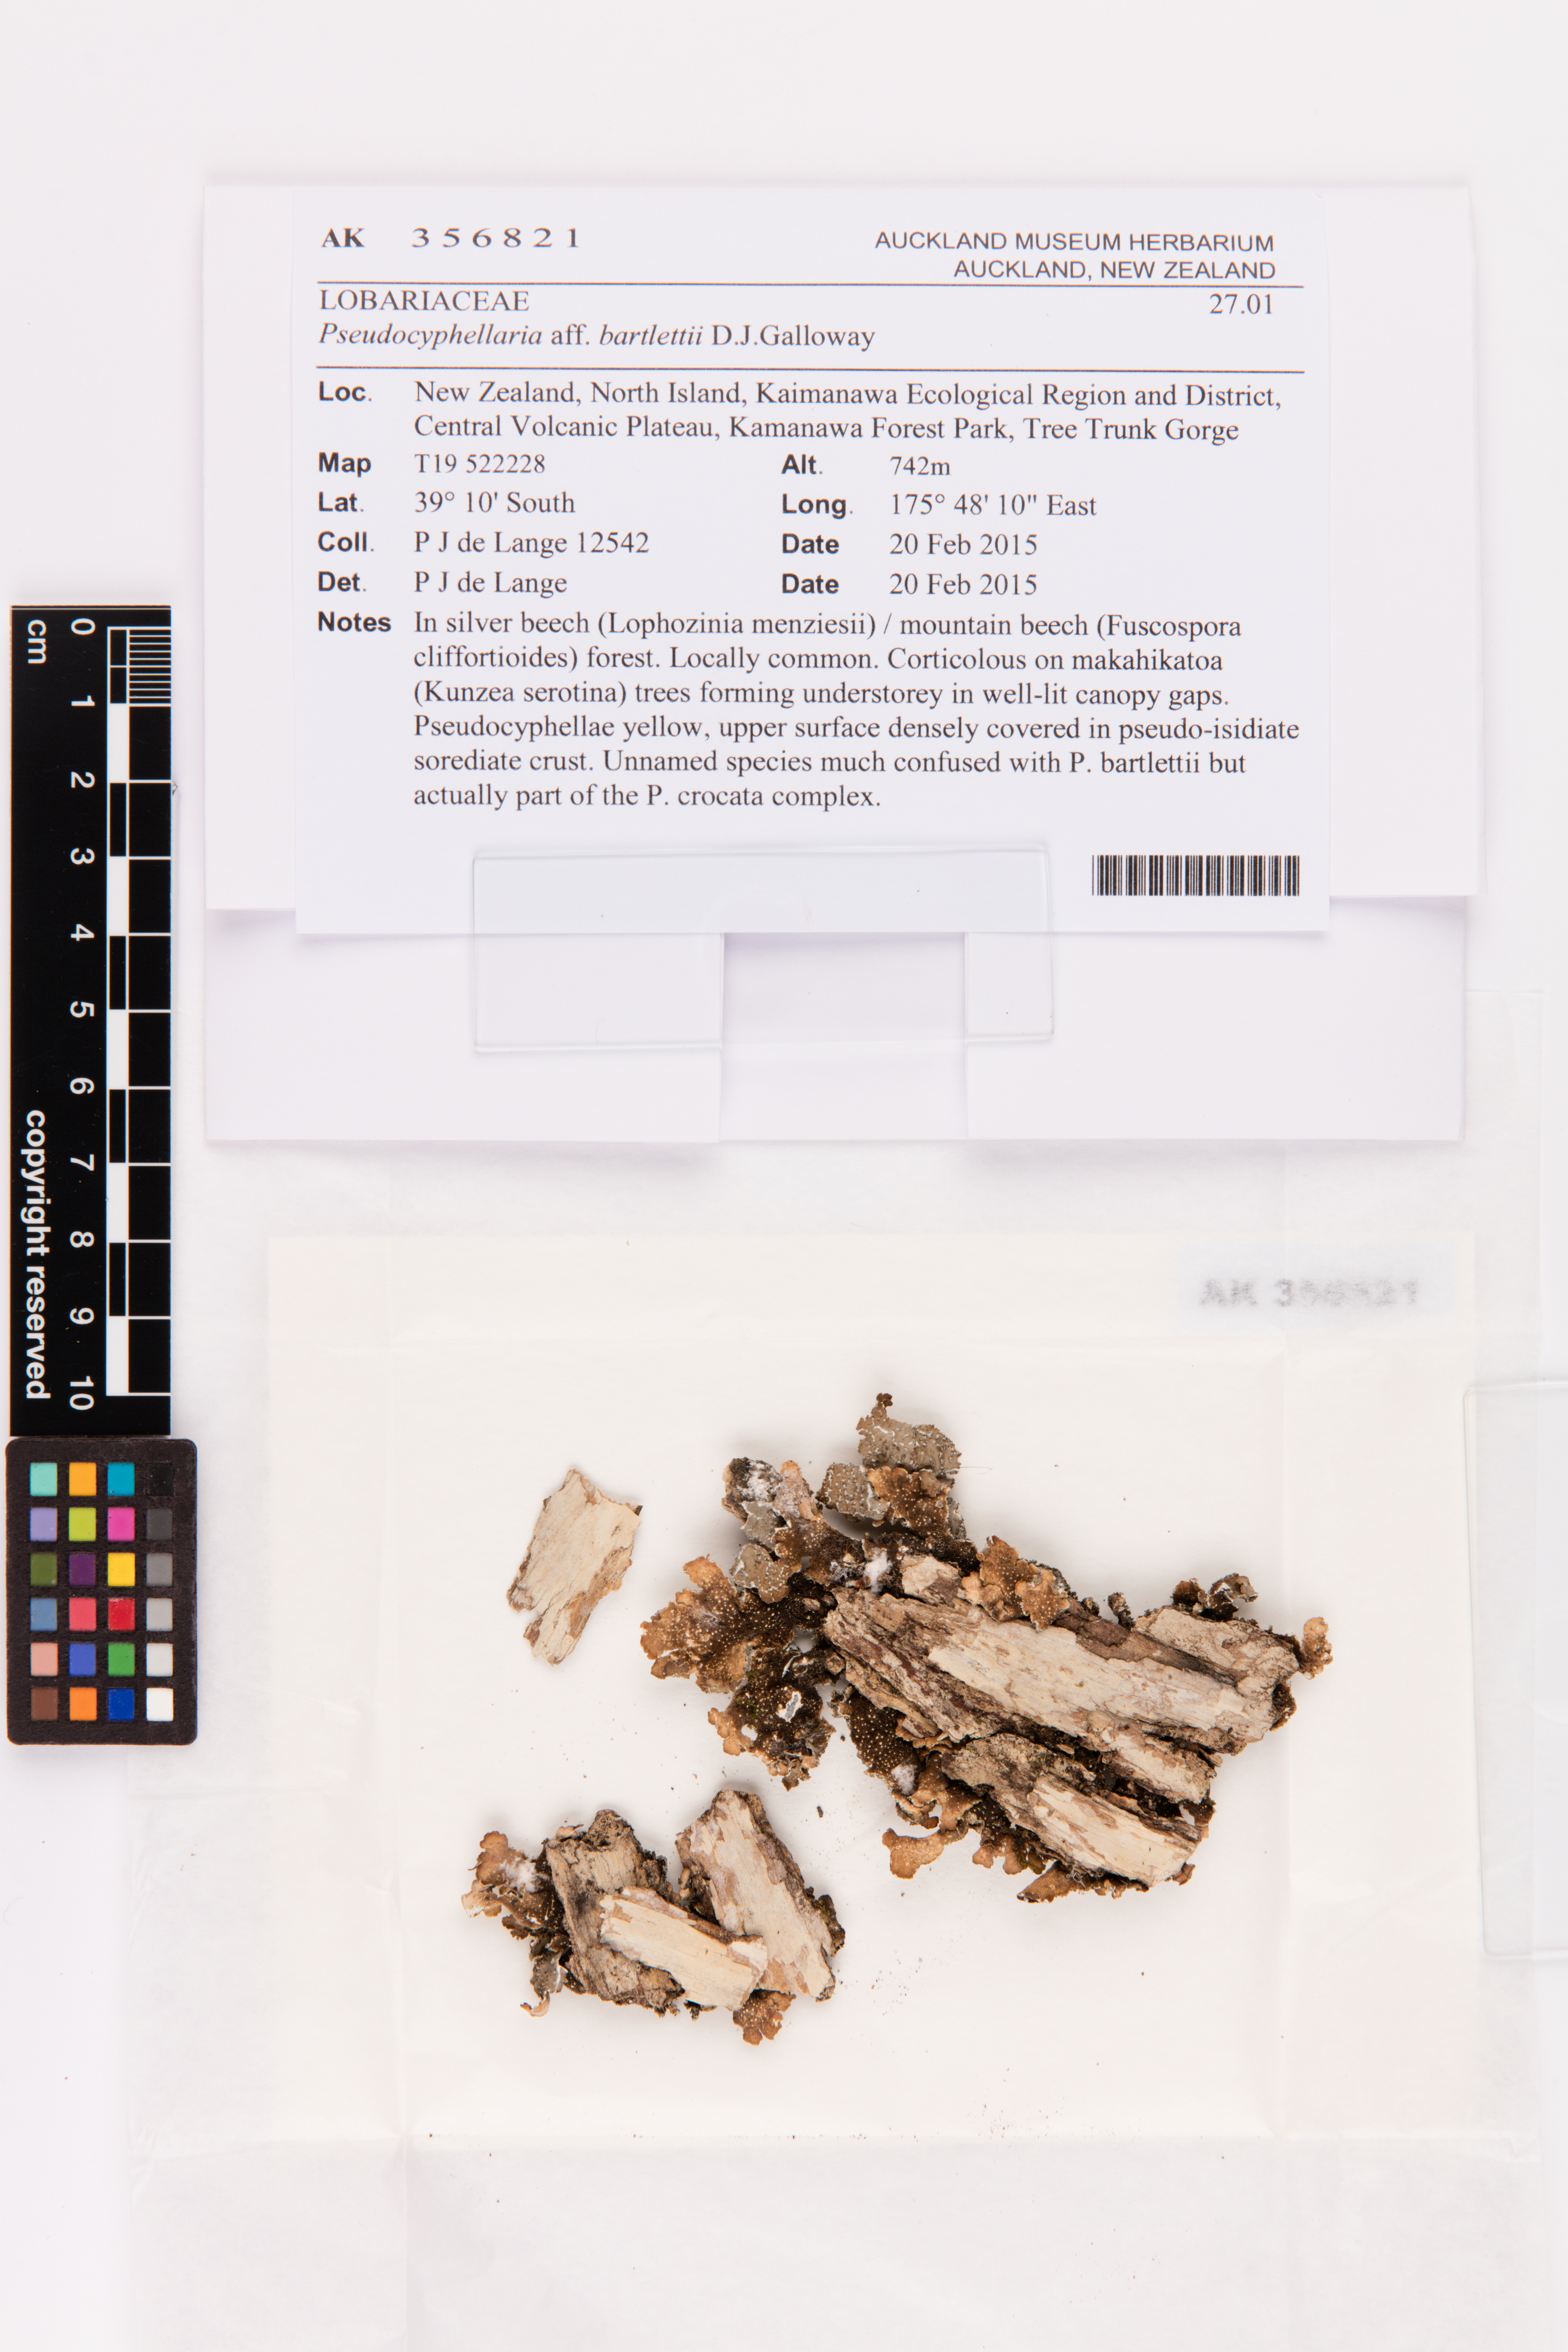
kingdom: Fungi
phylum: Ascomycota
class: Lecanoromycetes
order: Peltigerales
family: Lobariaceae
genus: Pseudocyphellaria
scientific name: Pseudocyphellaria bartlettii
